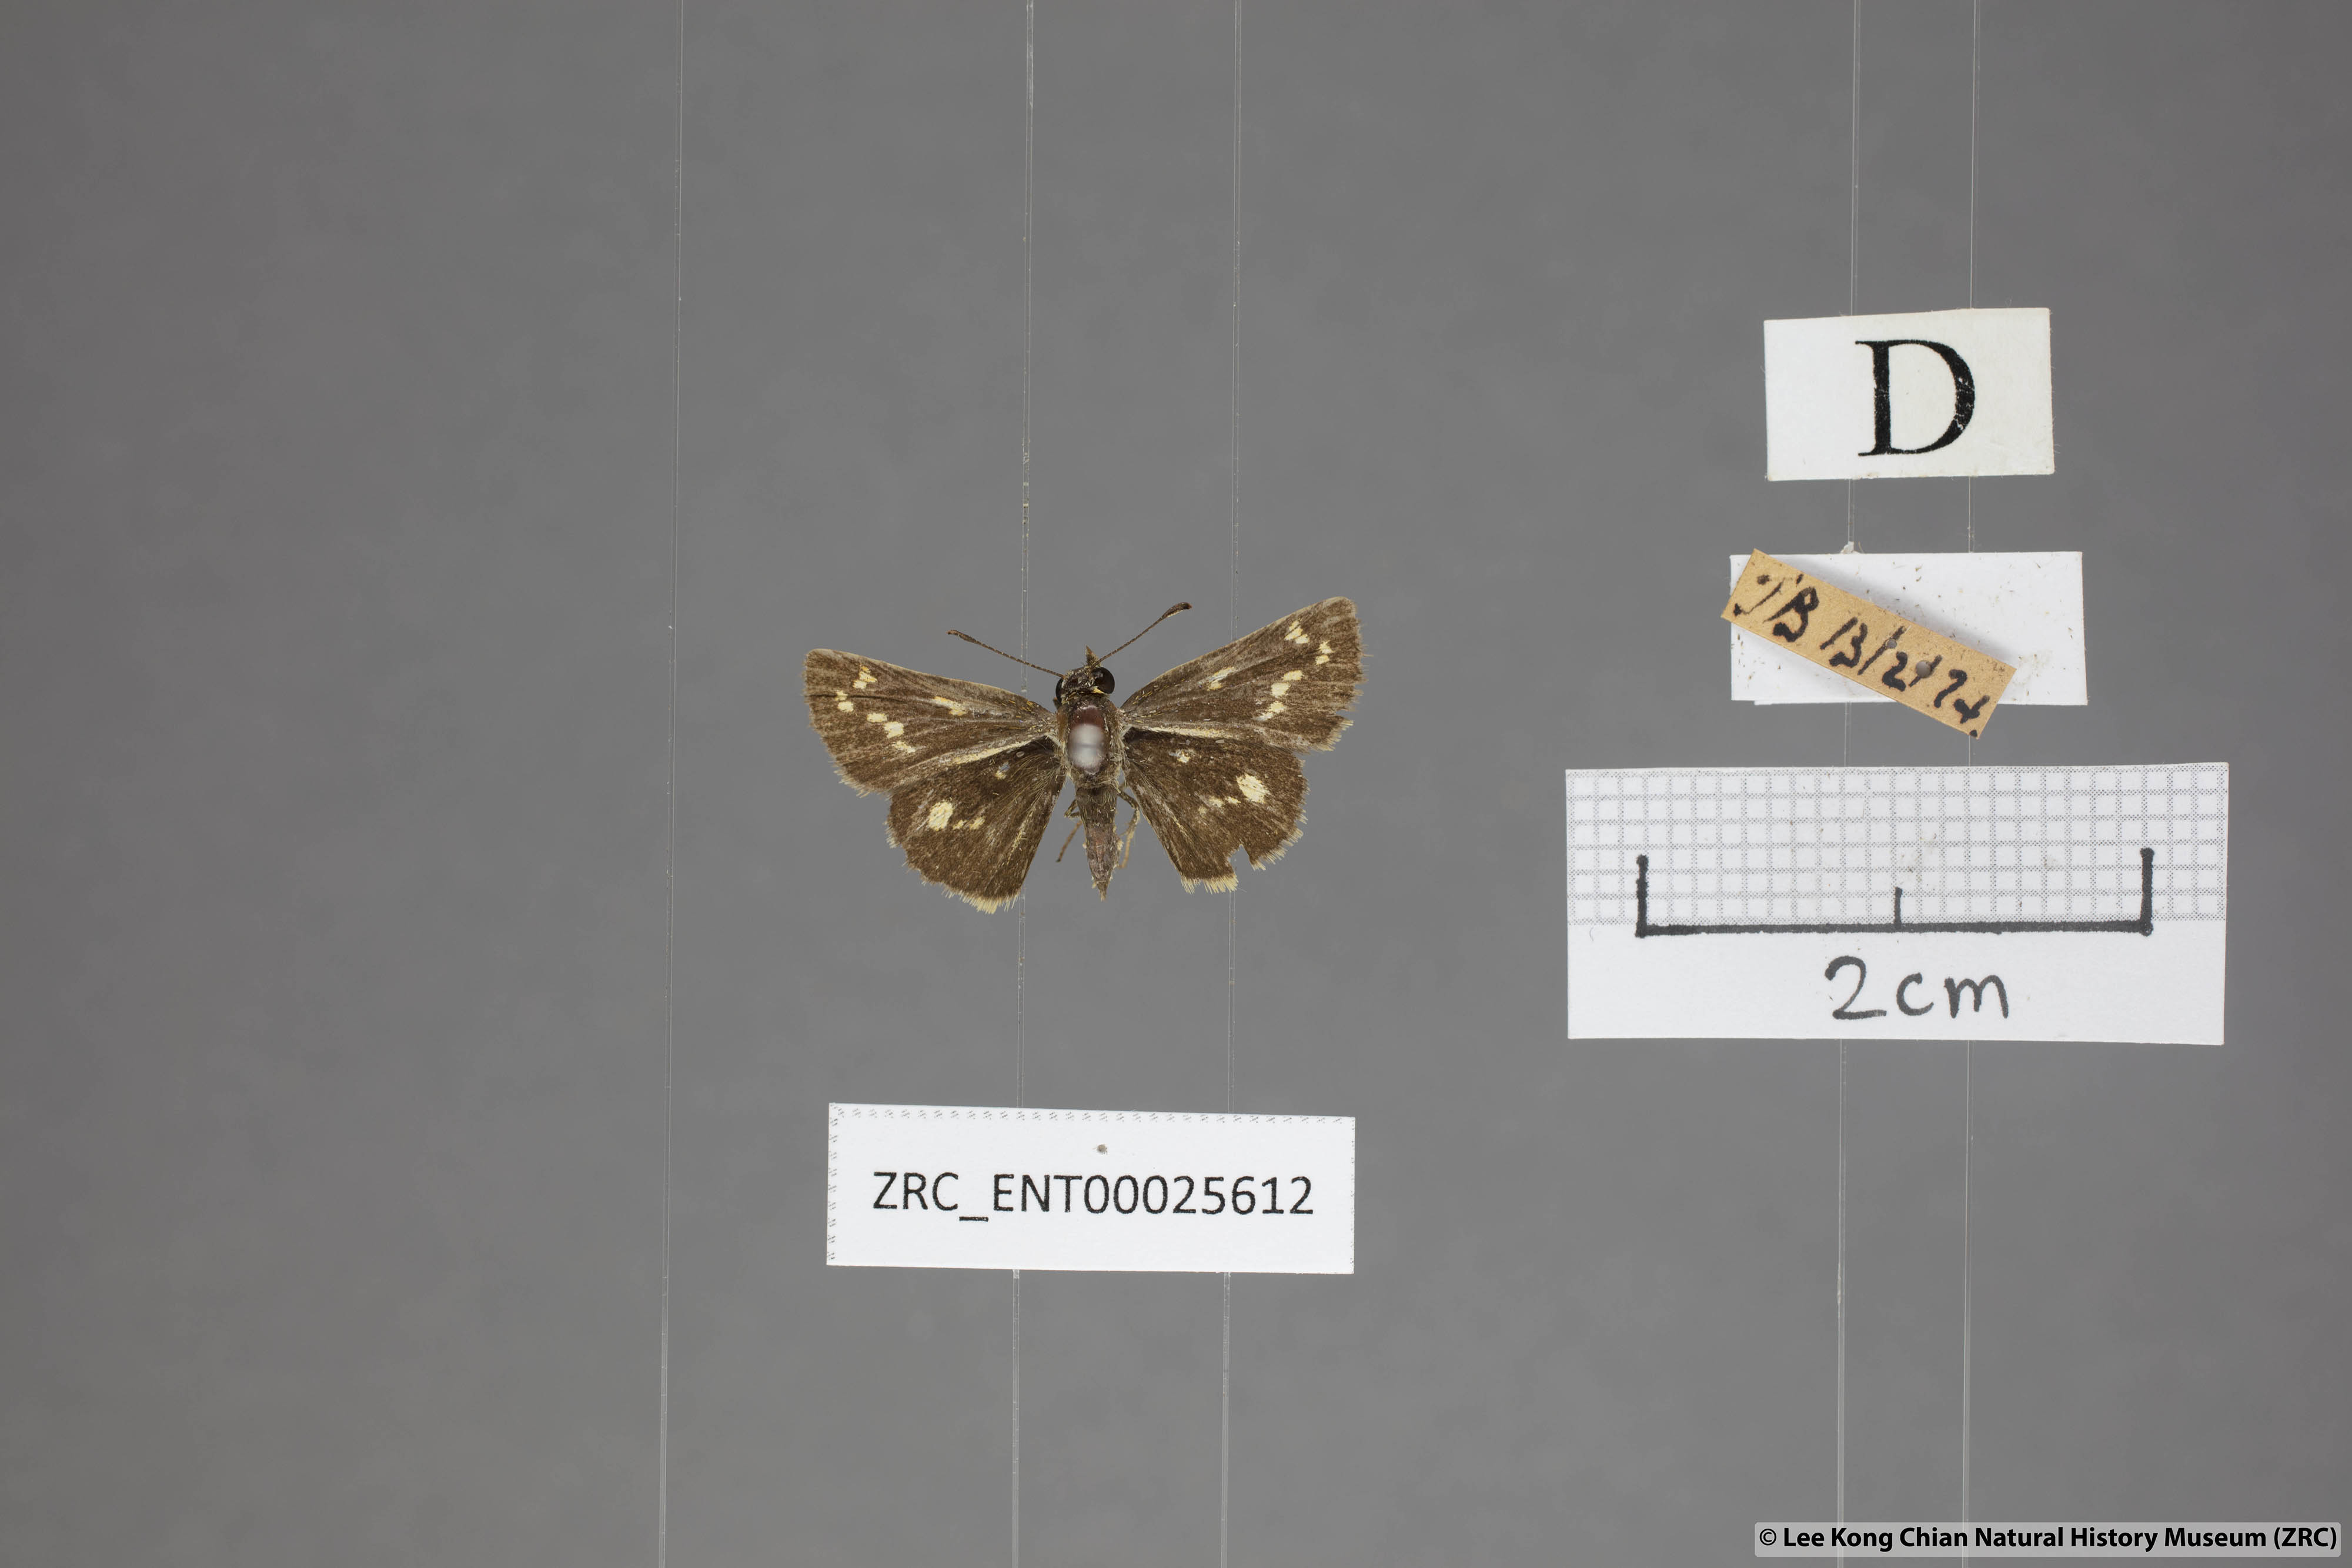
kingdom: Animalia
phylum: Arthropoda
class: Insecta
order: Lepidoptera
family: Hesperiidae
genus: Taractrocera
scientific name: Taractrocera ardonia
